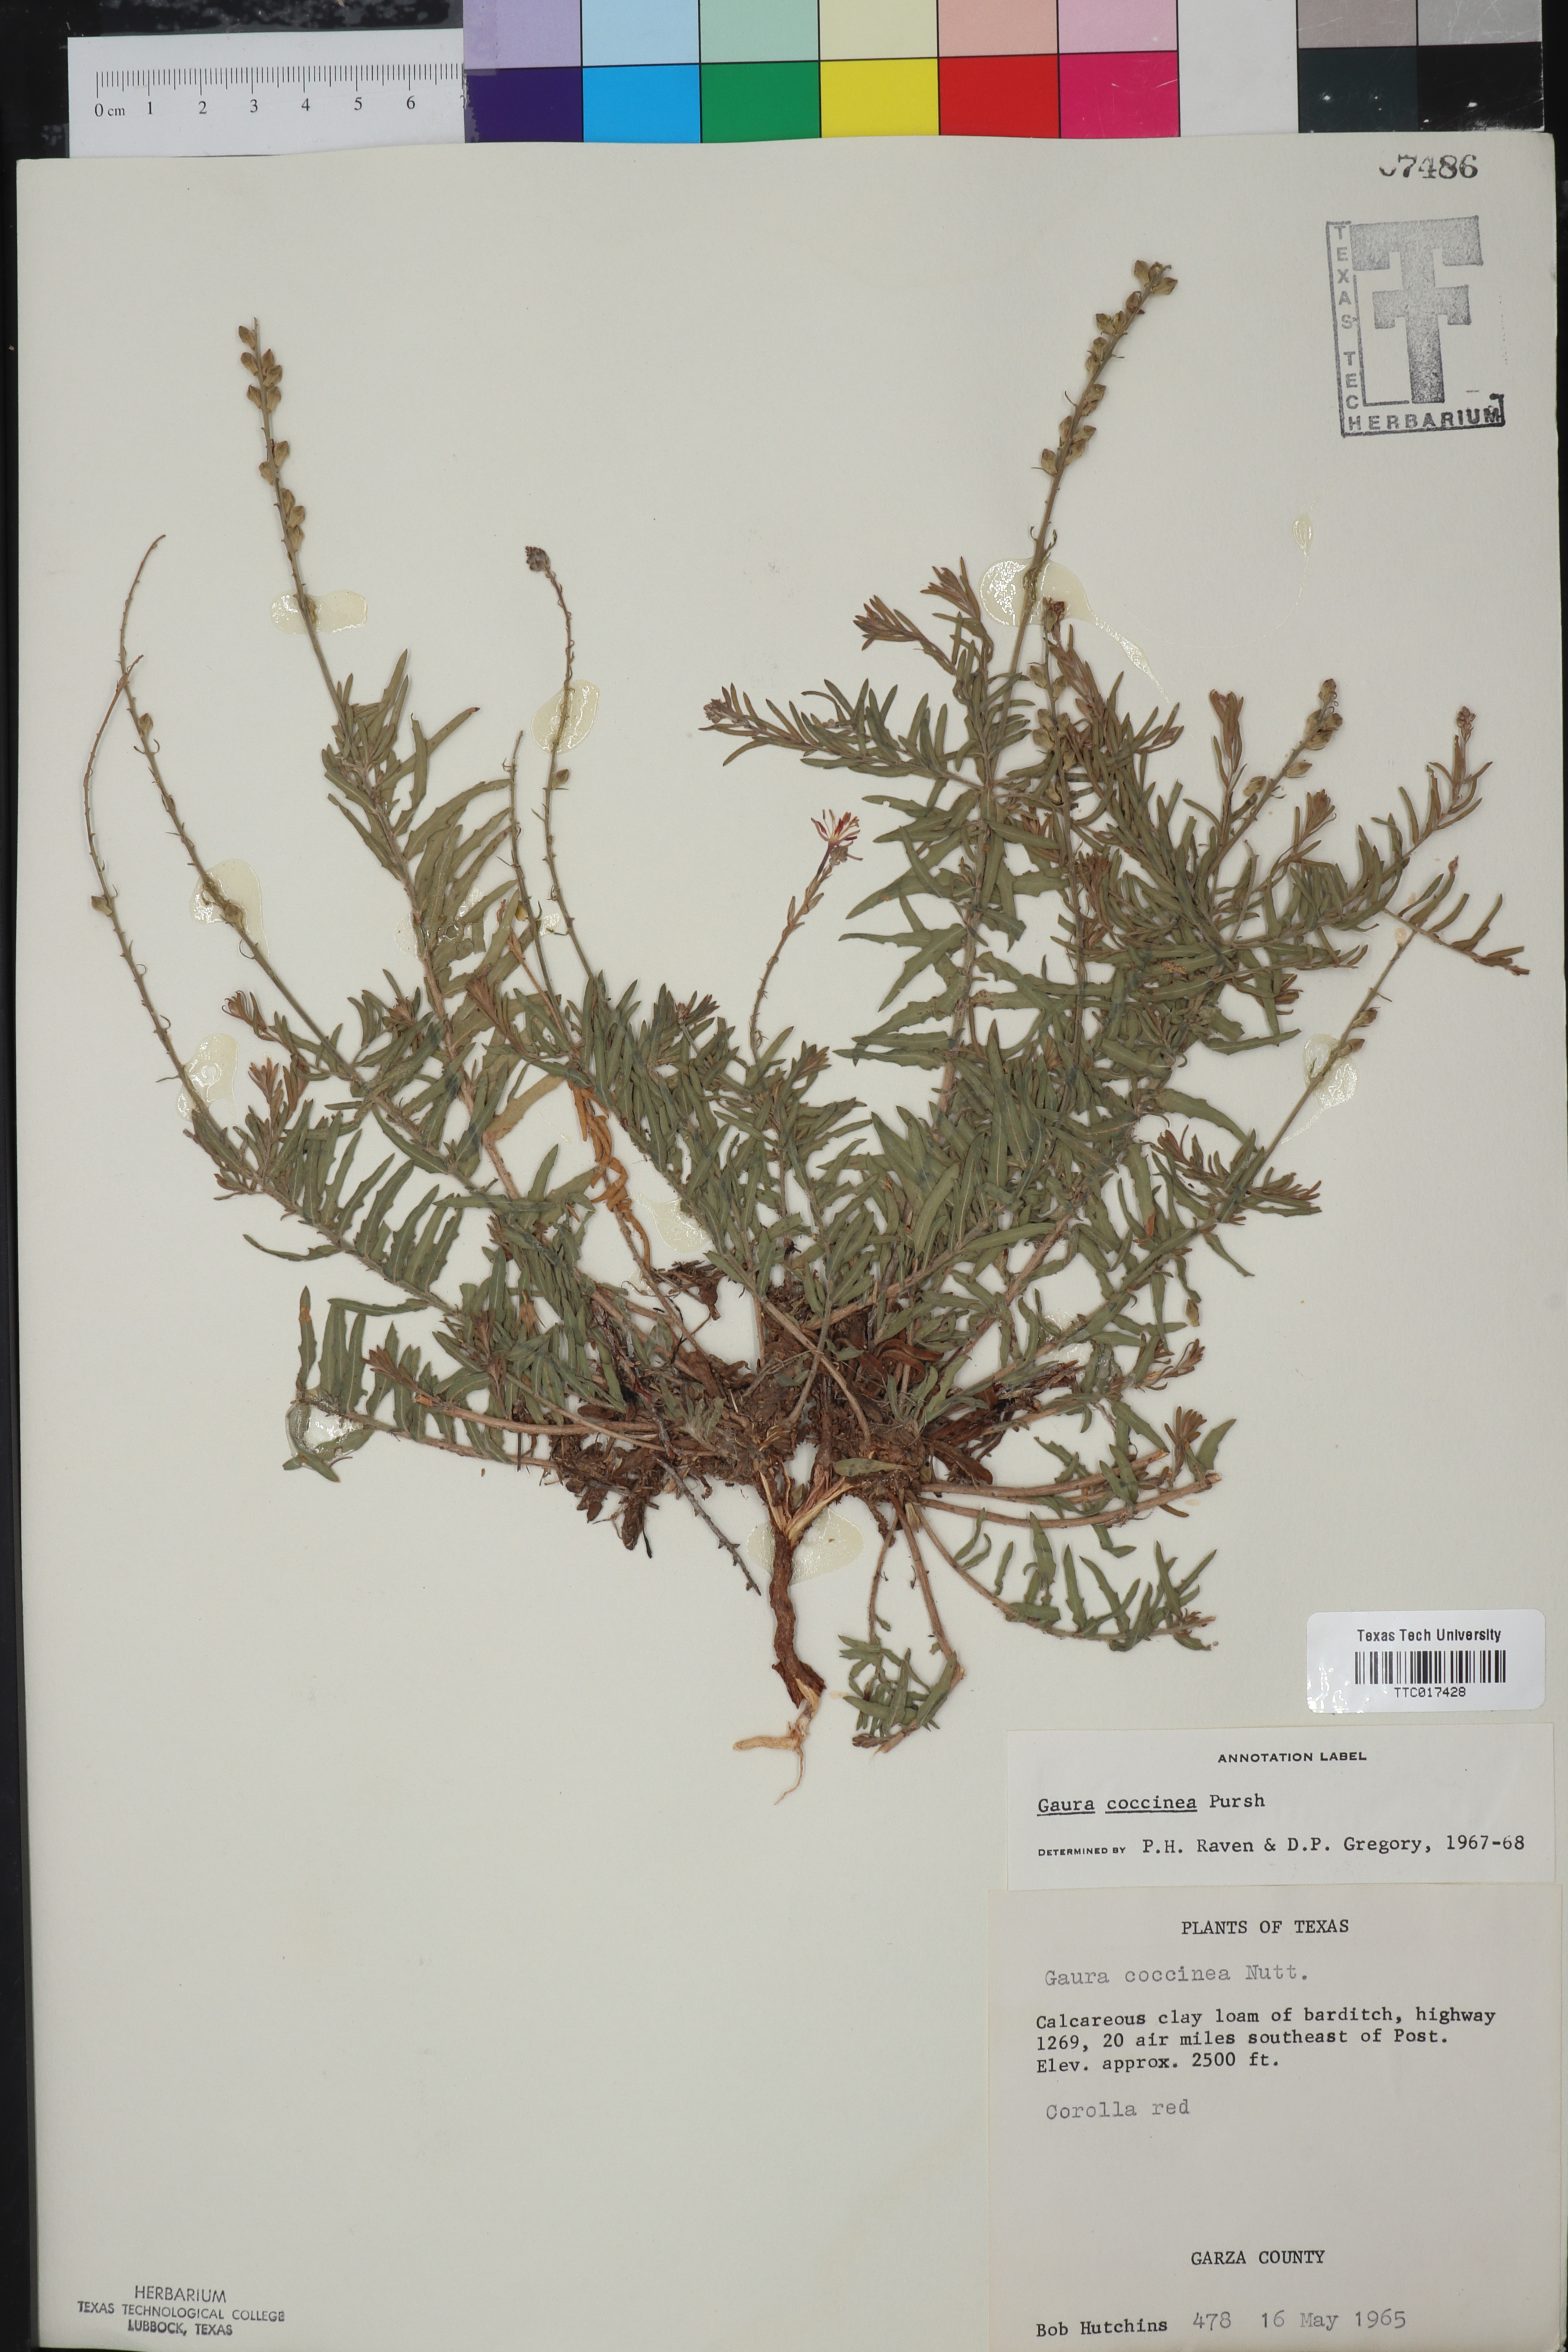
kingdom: Plantae
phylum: Tracheophyta
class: Magnoliopsida
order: Myrtales
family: Onagraceae
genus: Oenothera
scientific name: Oenothera suffrutescens
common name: Scarlet beeblossom
